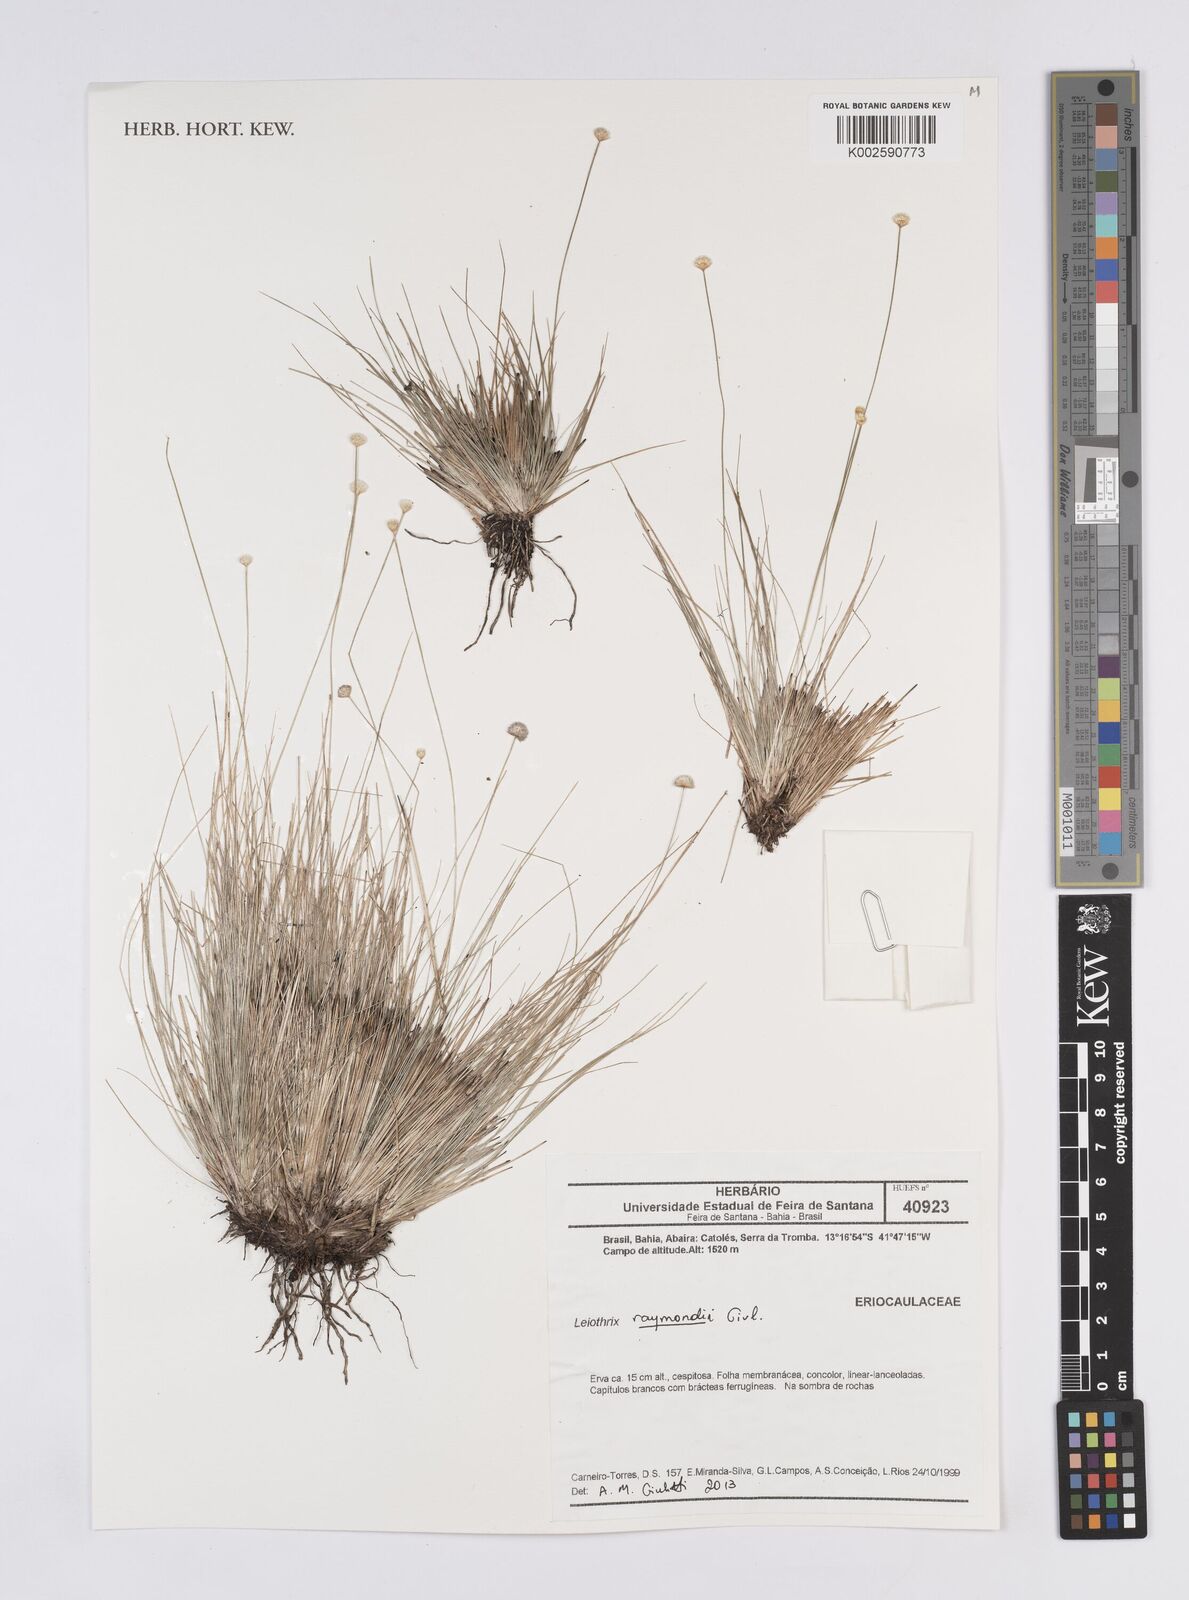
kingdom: Plantae
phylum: Tracheophyta
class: Liliopsida
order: Poales
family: Eriocaulaceae
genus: Leiothrix
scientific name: Leiothrix raymondii
